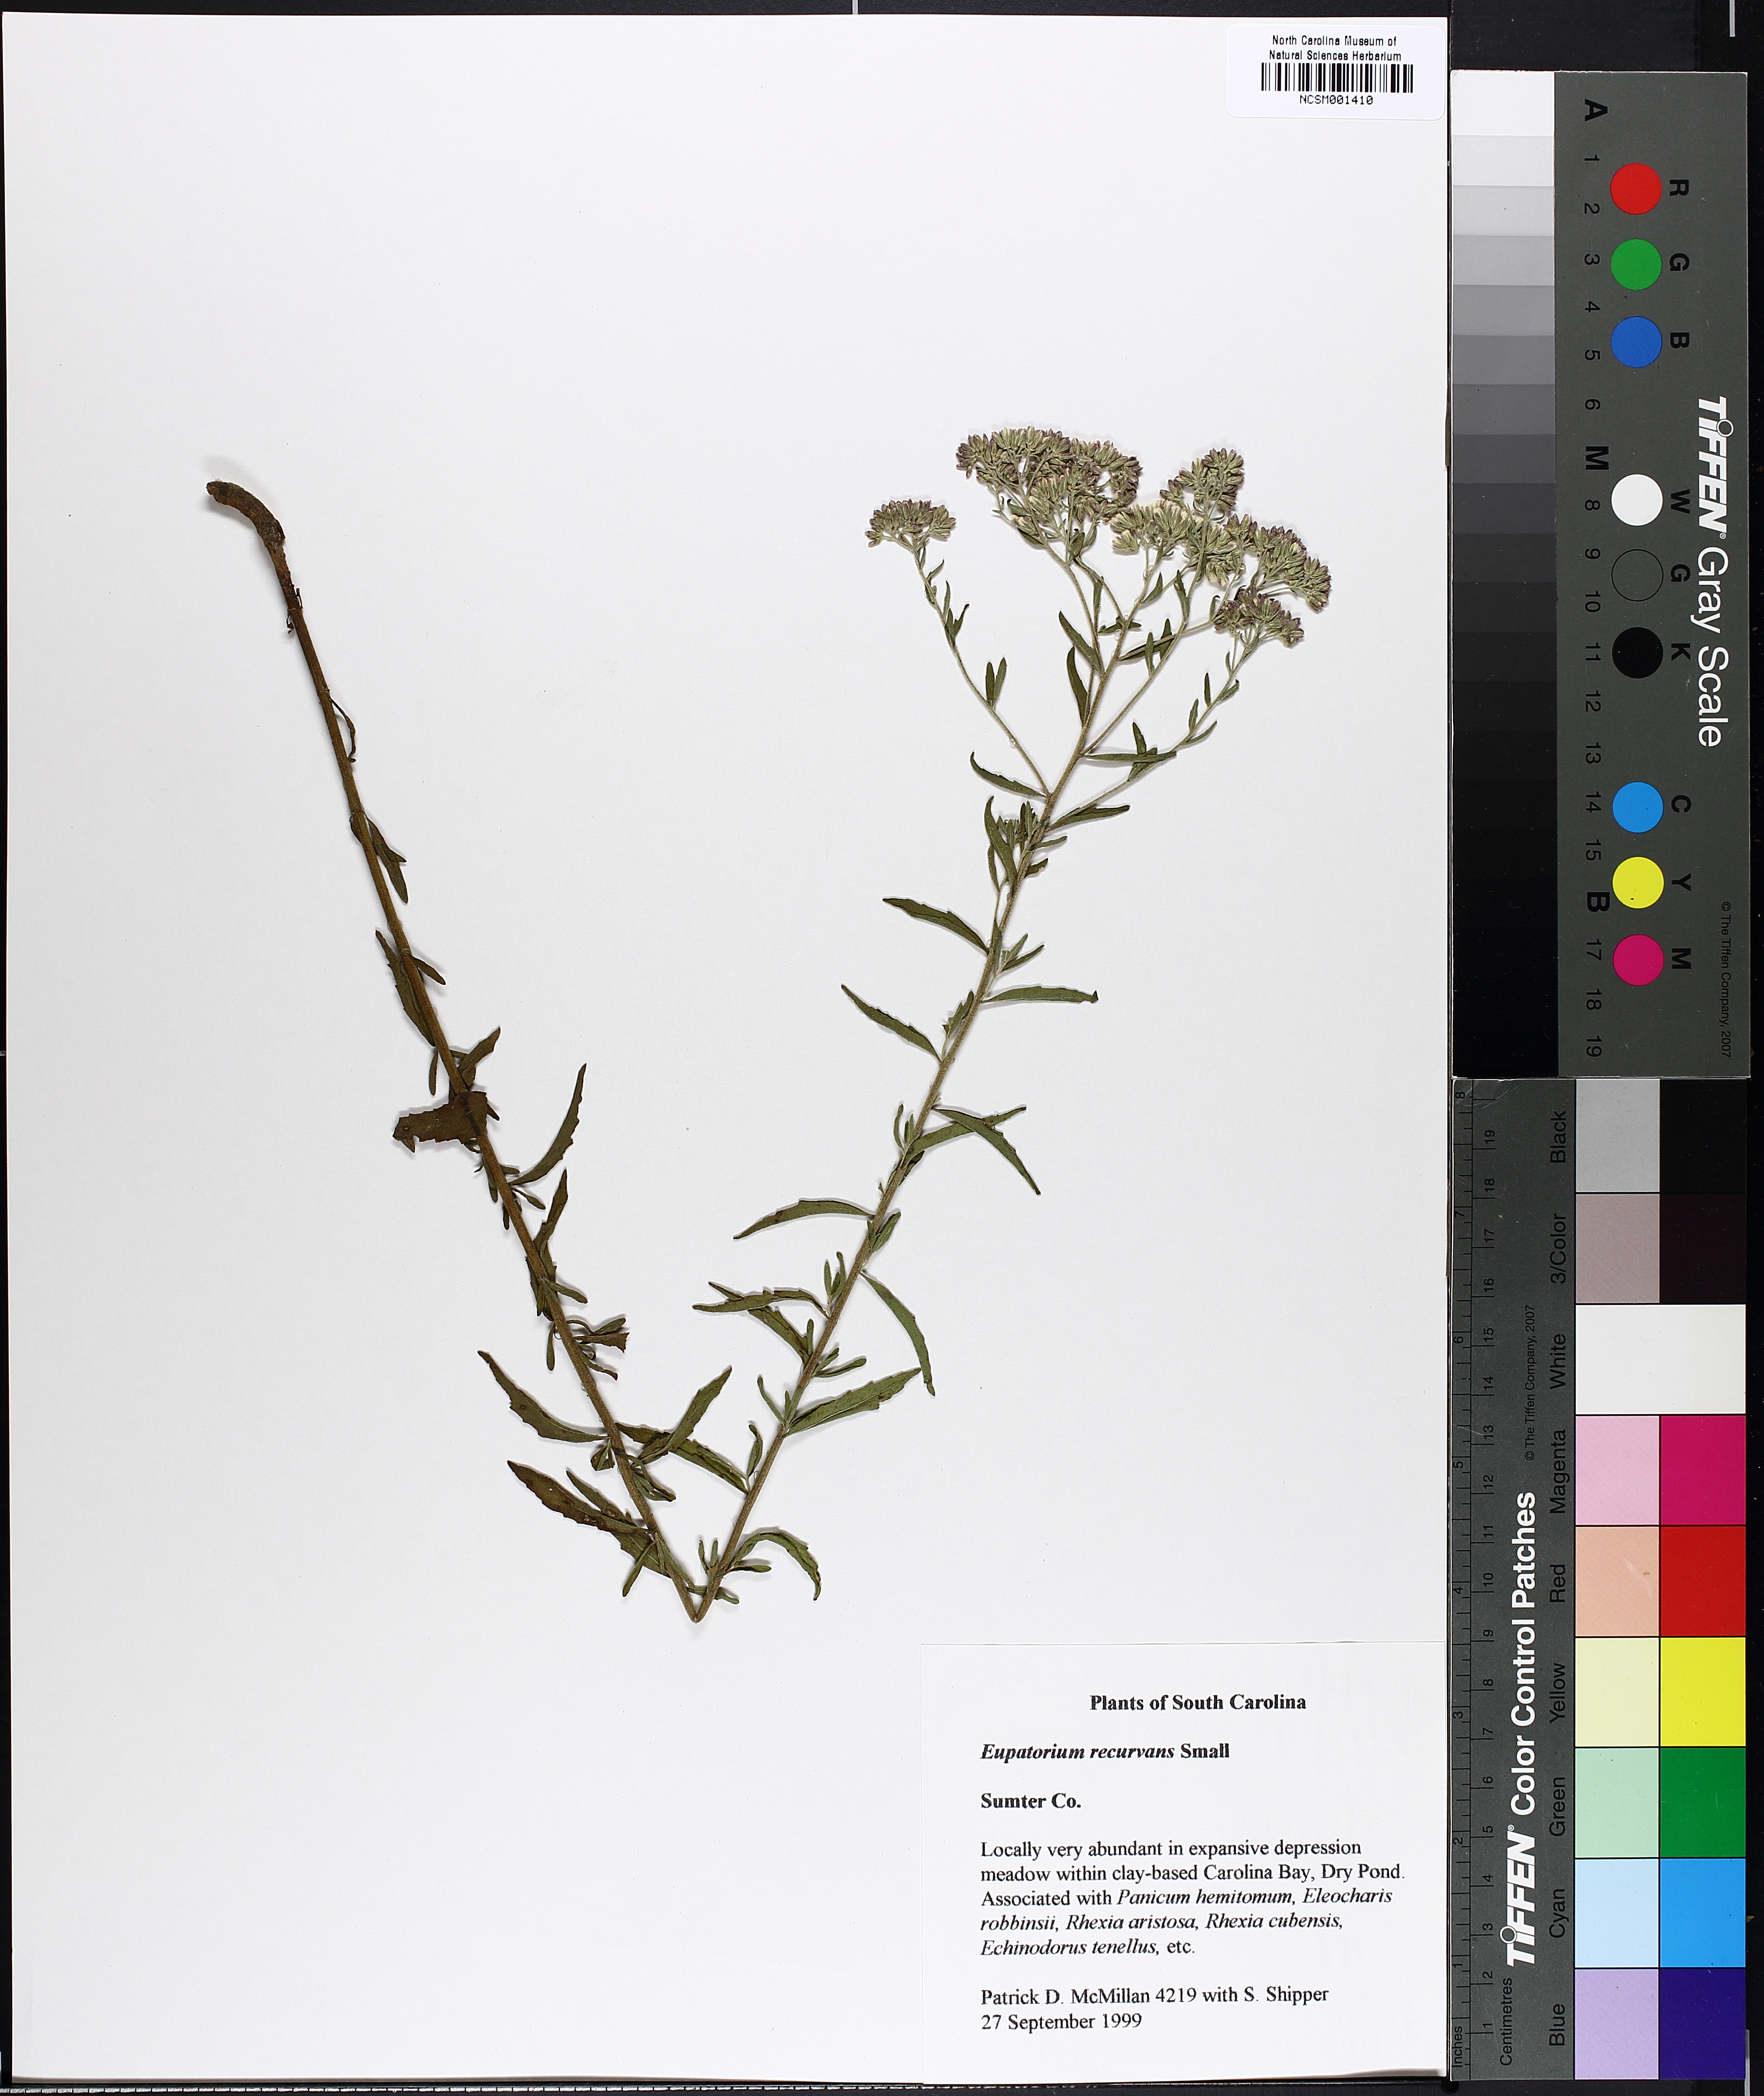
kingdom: Plantae
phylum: Tracheophyta
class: Magnoliopsida
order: Asterales
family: Asteraceae
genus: Eupatorium
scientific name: Eupatorium mohrii
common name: Mohr's thoroughwort
